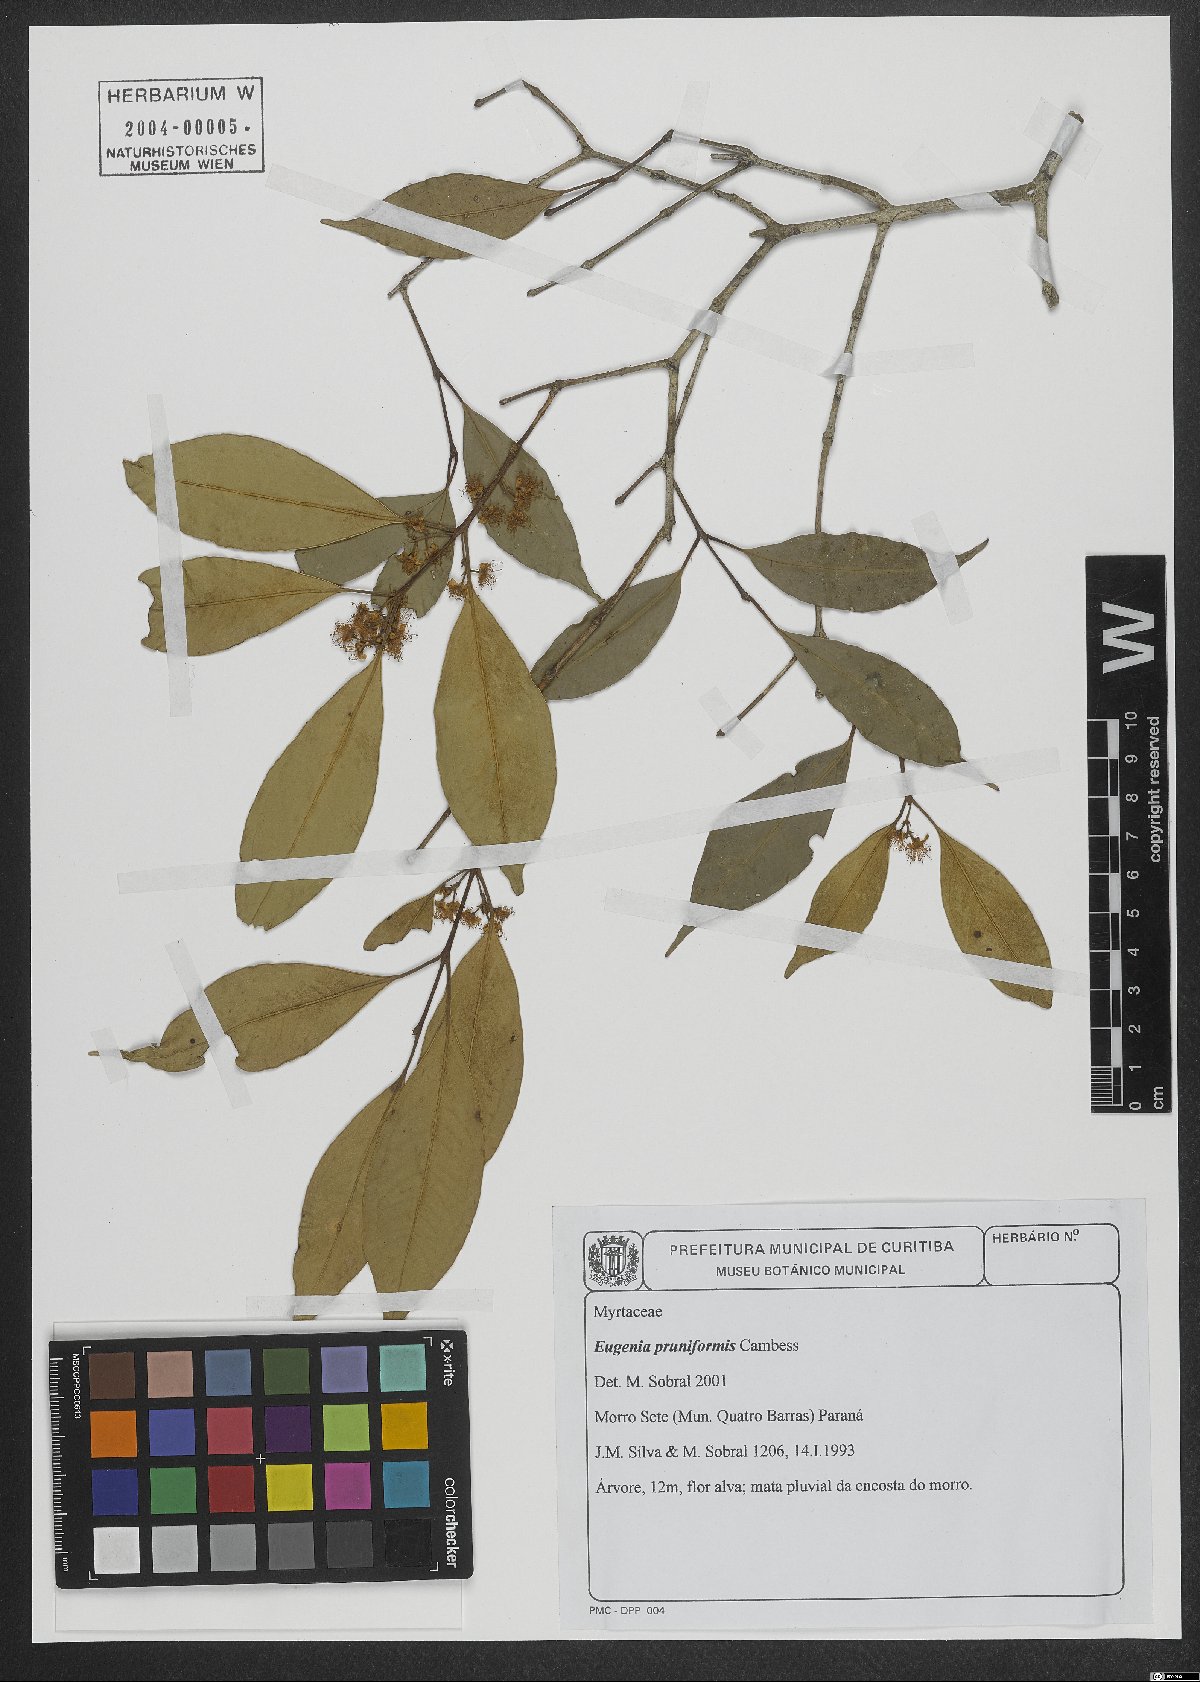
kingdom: Plantae
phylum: Tracheophyta
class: Magnoliopsida
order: Myrtales
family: Myrtaceae
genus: Eugenia
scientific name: Eugenia pruniformis
